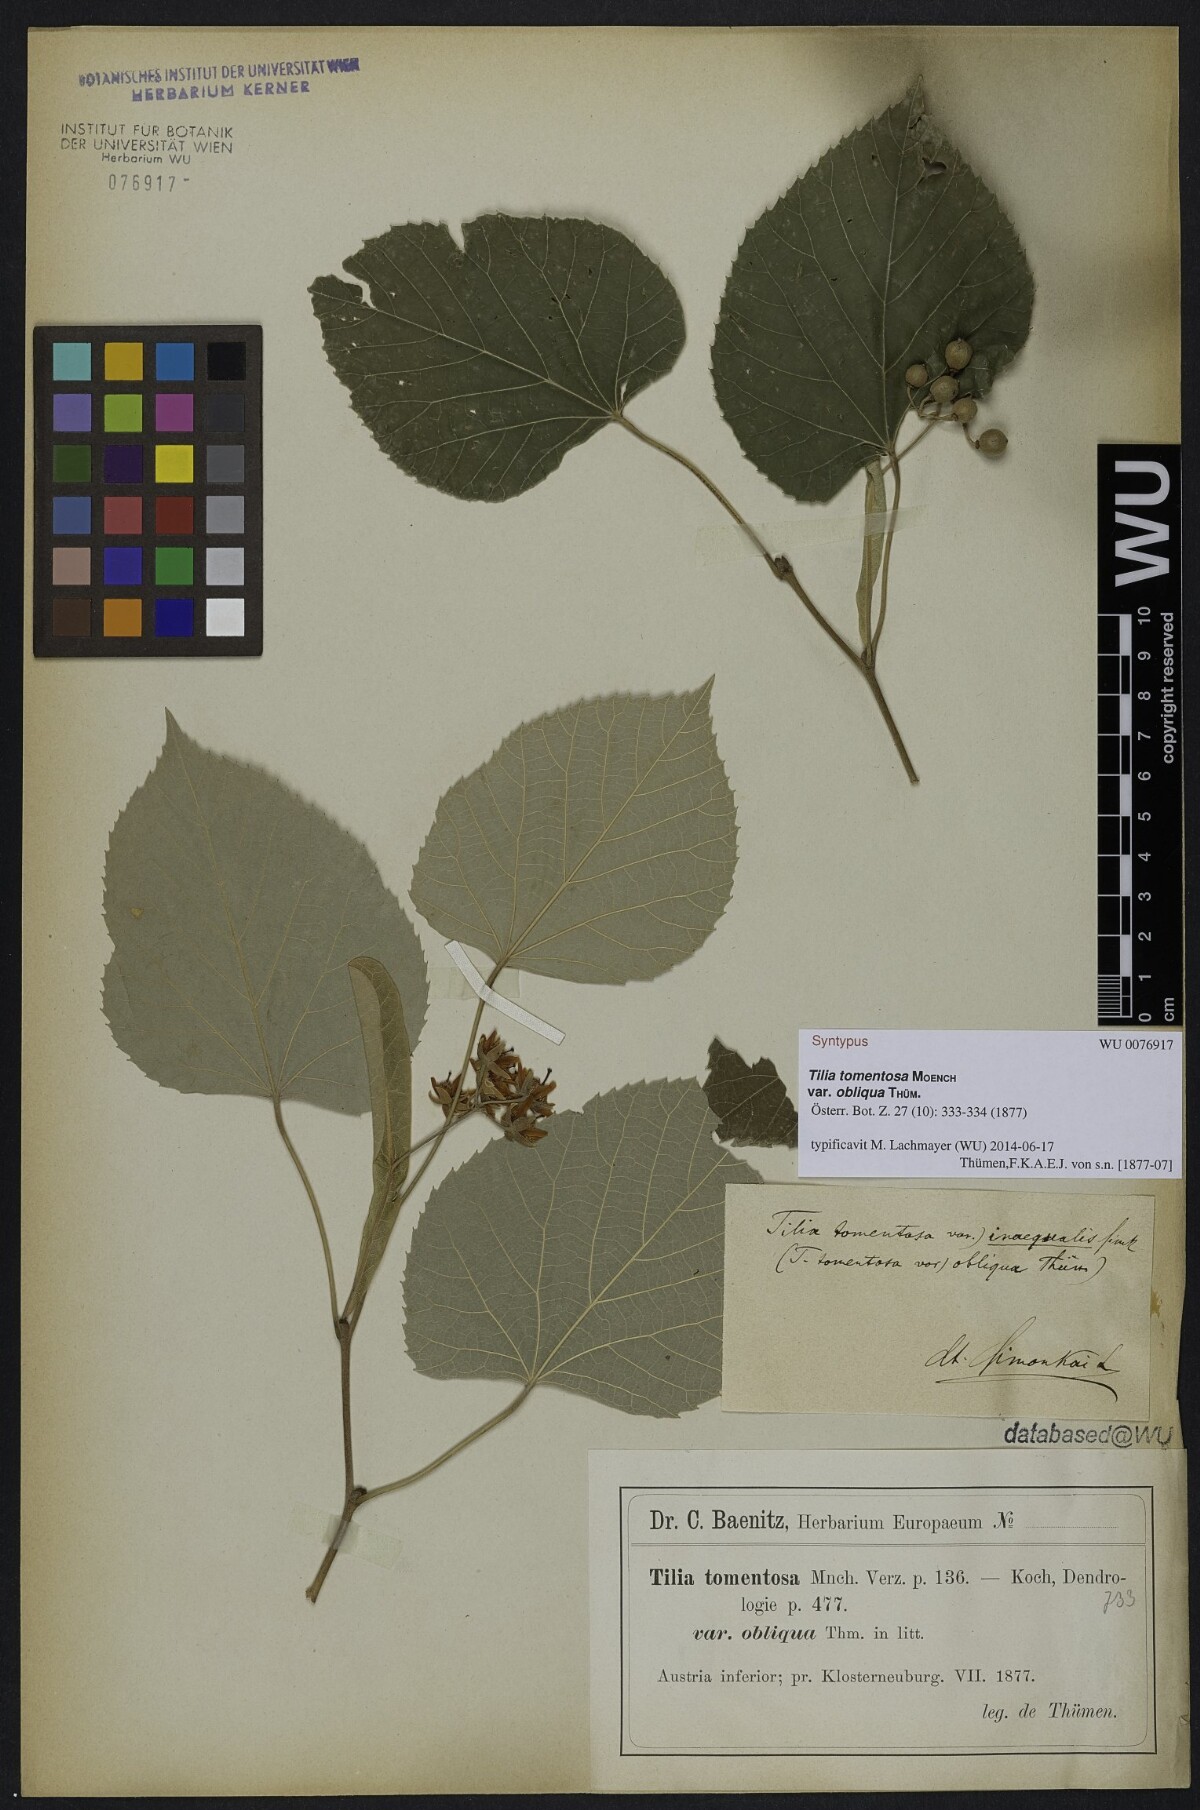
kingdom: Plantae
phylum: Tracheophyta
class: Magnoliopsida
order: Malvales
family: Malvaceae
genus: Tilia
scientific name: Tilia tomentosa
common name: Silver lime
